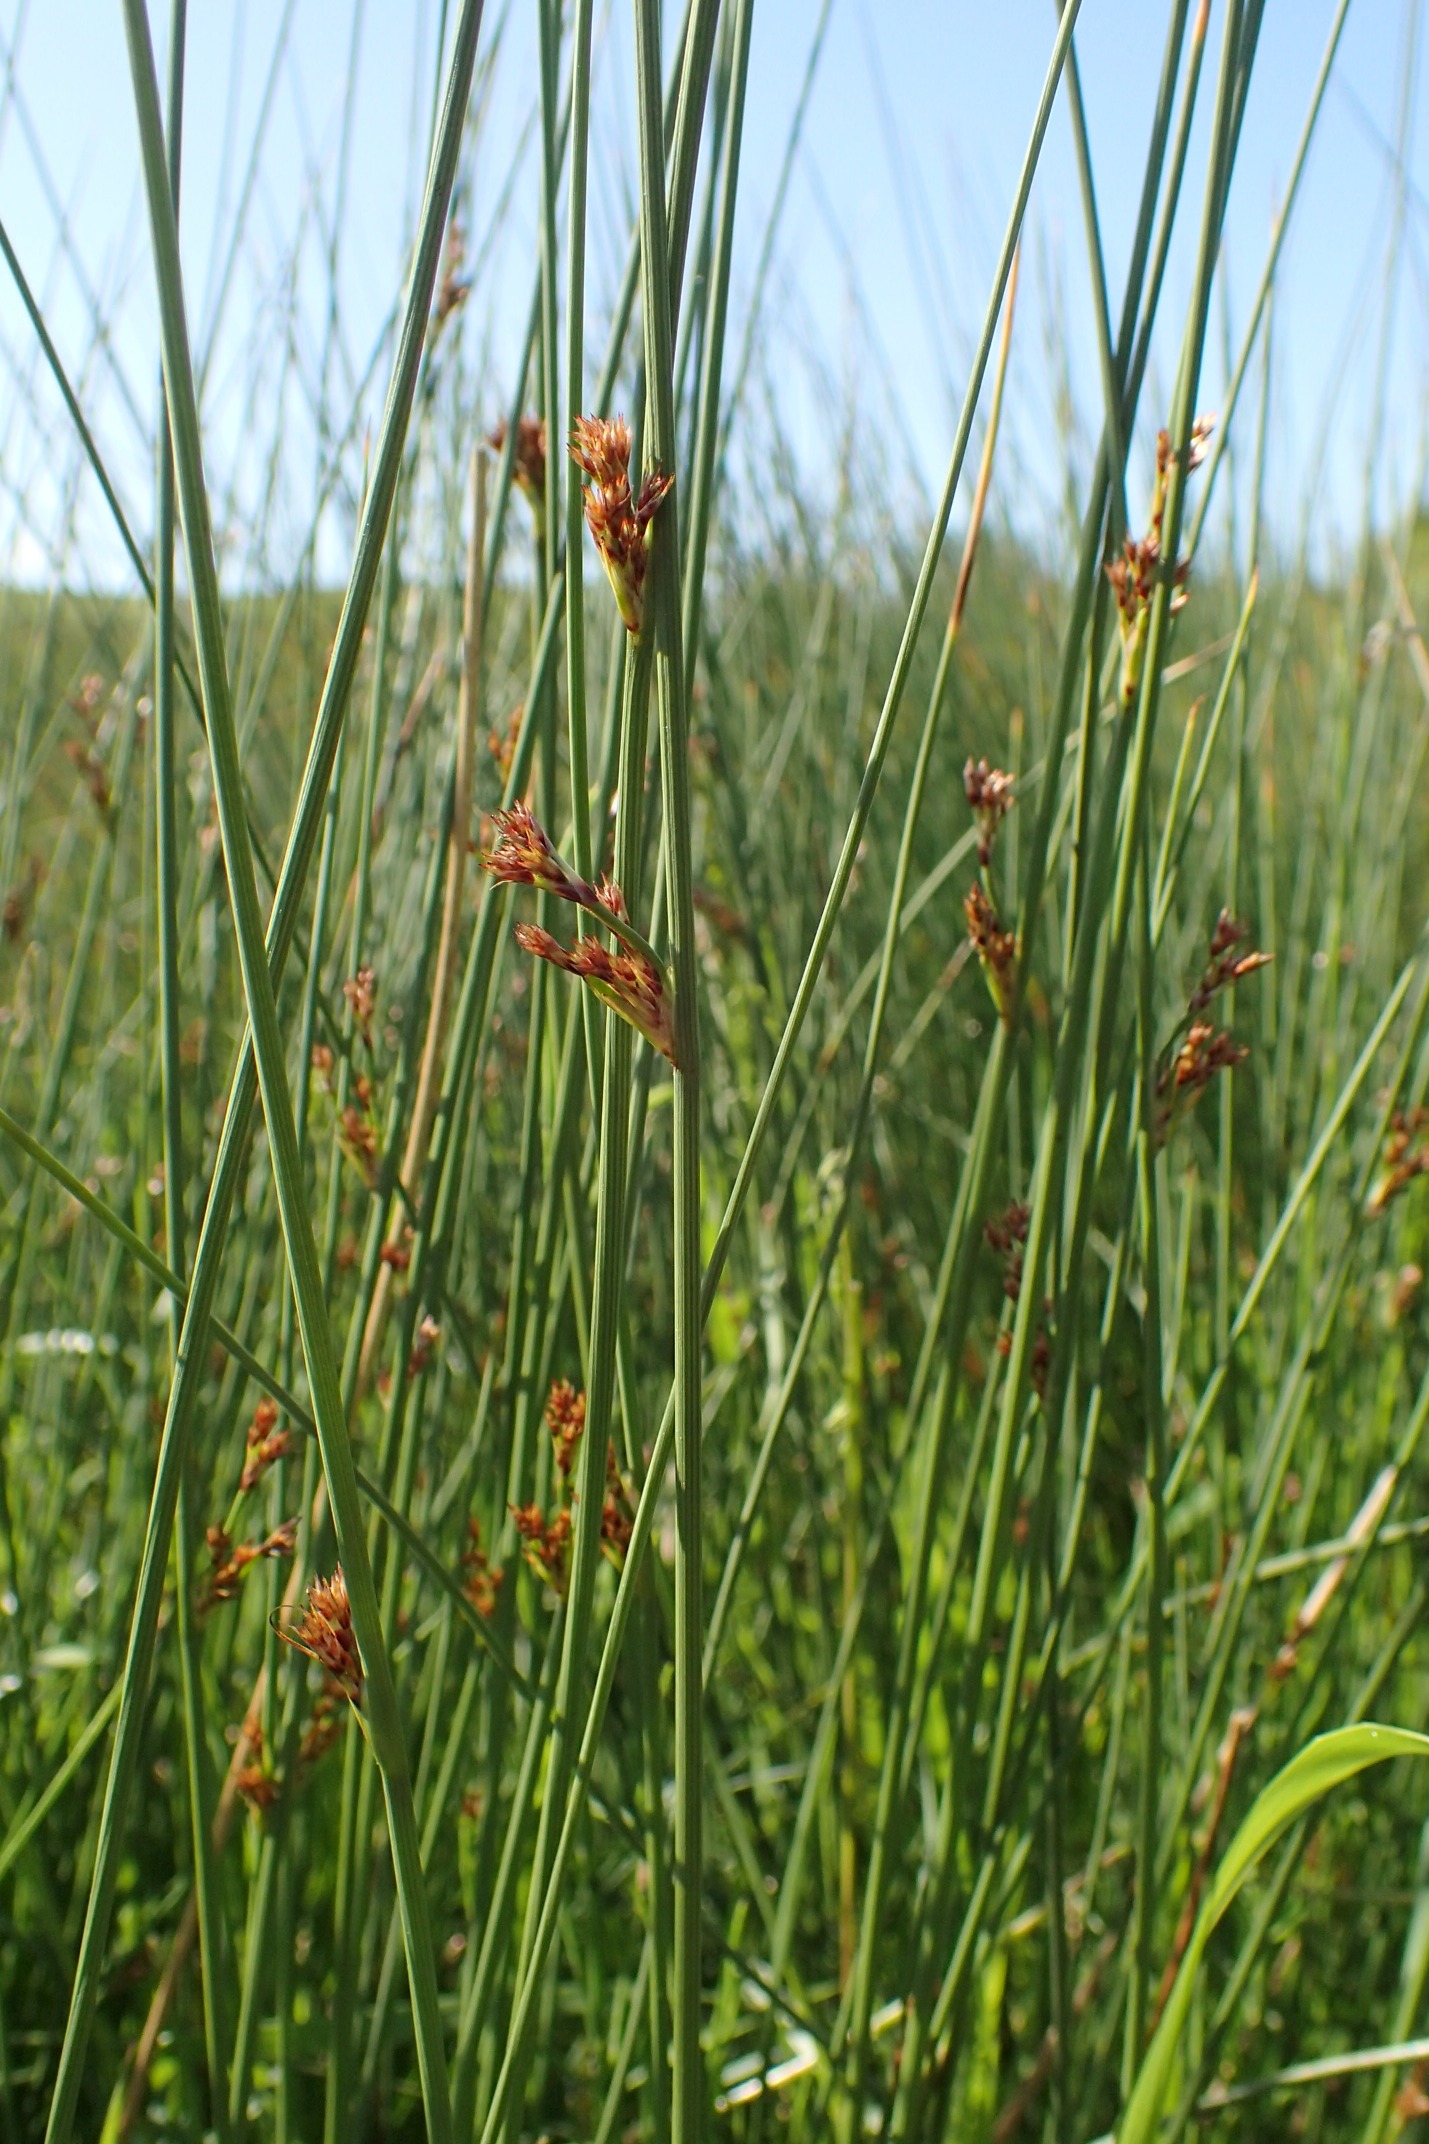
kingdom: Plantae
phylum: Tracheophyta
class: Liliopsida
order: Poales
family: Juncaceae
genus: Juncus
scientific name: Juncus inflexus
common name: Blågrå siv
